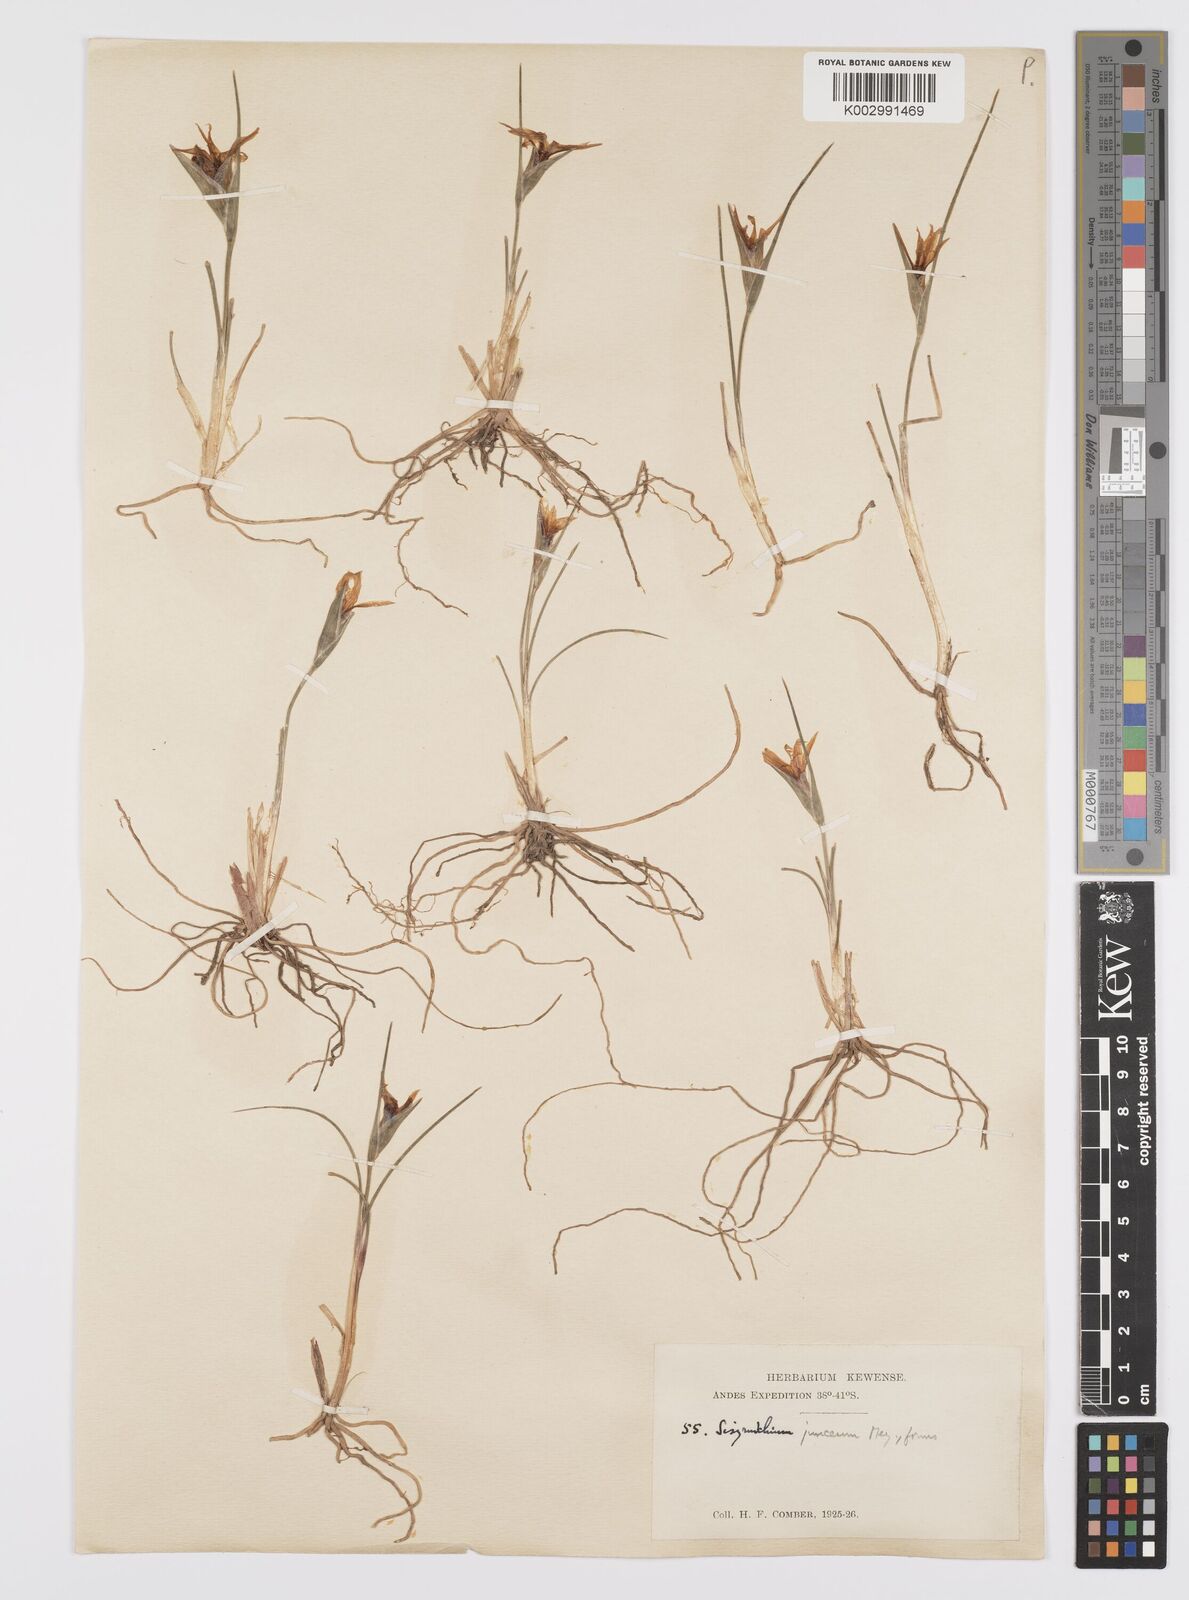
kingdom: Plantae
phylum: Tracheophyta
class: Liliopsida
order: Asparagales
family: Iridaceae
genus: Olsynium
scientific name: Olsynium junceum
